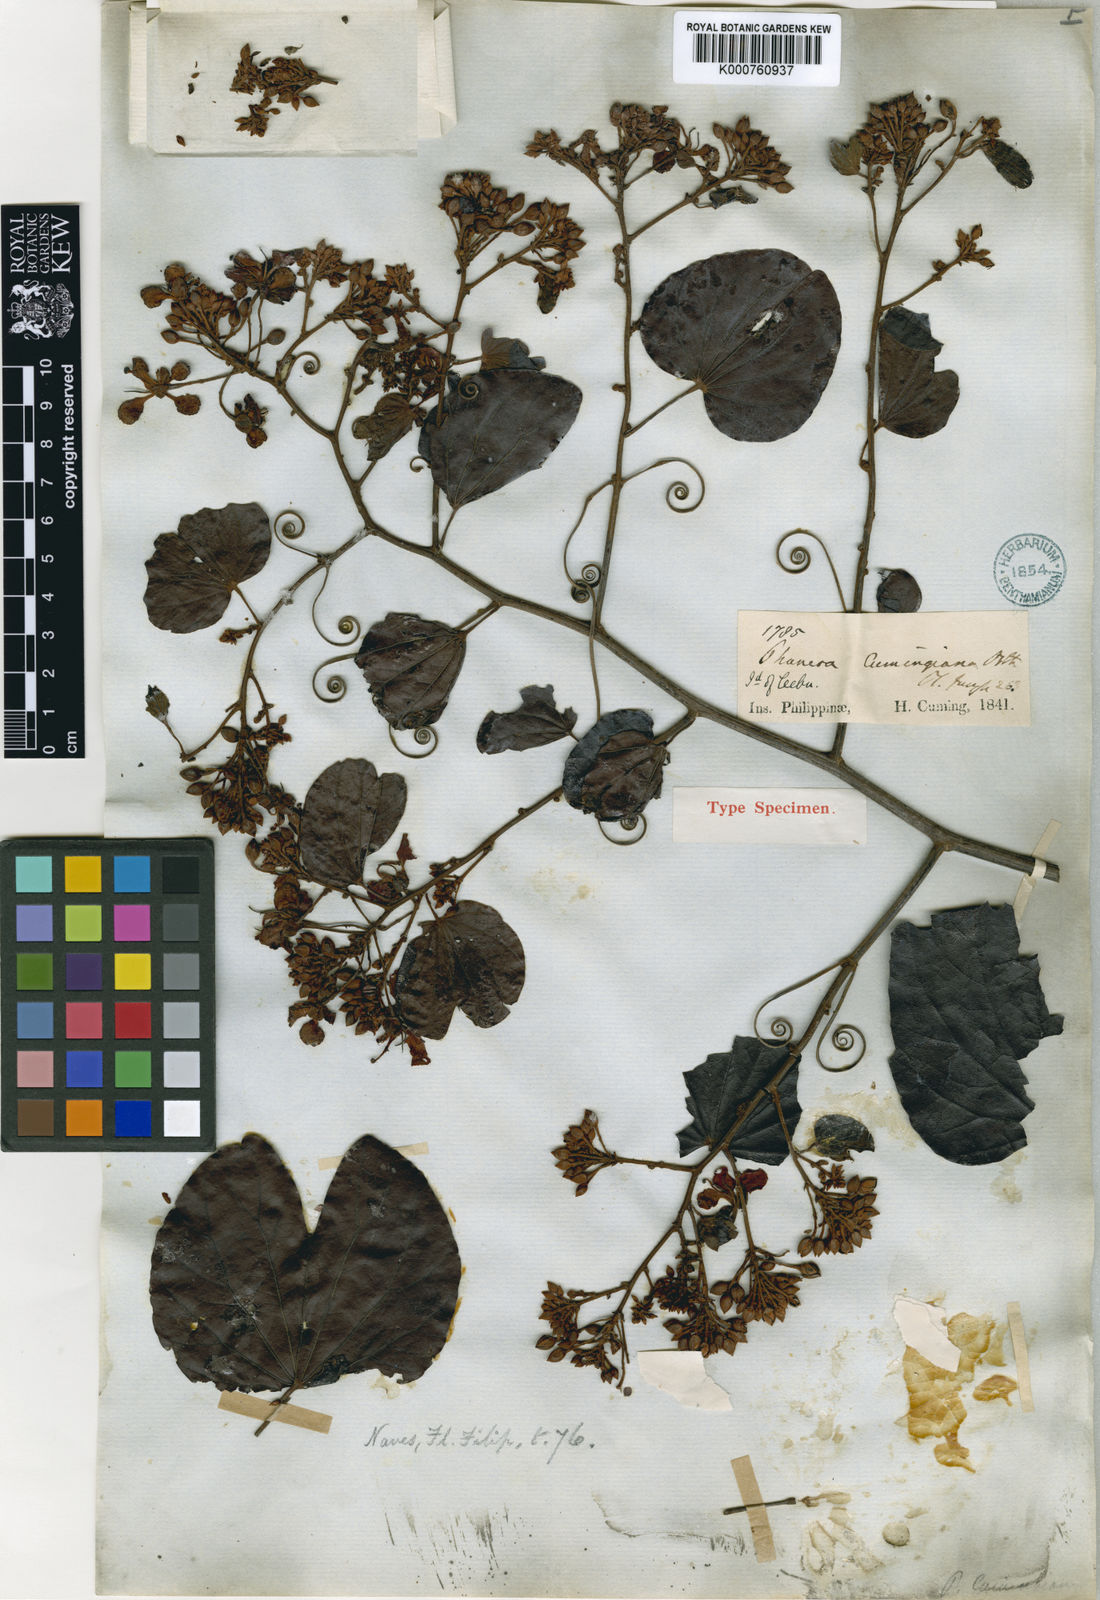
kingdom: Plantae
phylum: Tracheophyta
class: Magnoliopsida
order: Fabales
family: Fabaceae
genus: Phanera
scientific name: Phanera integrifolia
